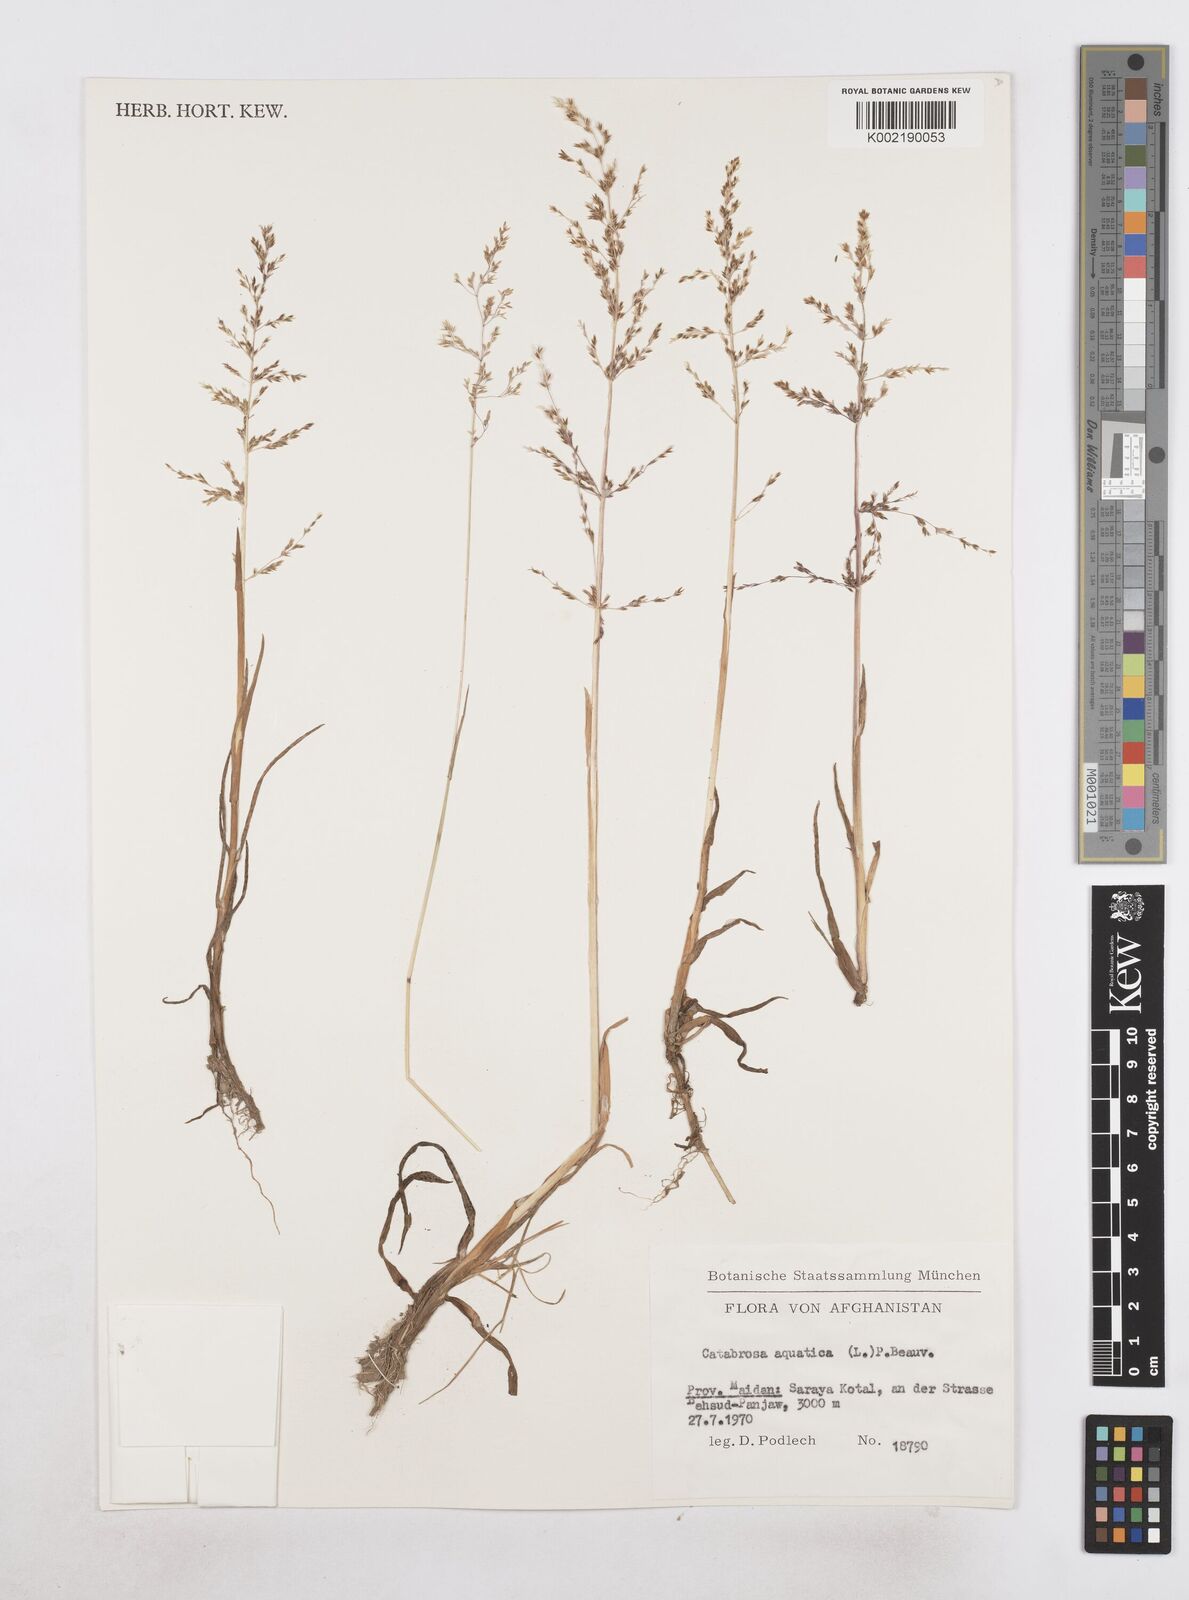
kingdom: Plantae
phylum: Tracheophyta
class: Liliopsida
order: Poales
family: Poaceae
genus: Catabrosa
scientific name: Catabrosa aquatica
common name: Whorl-grass
